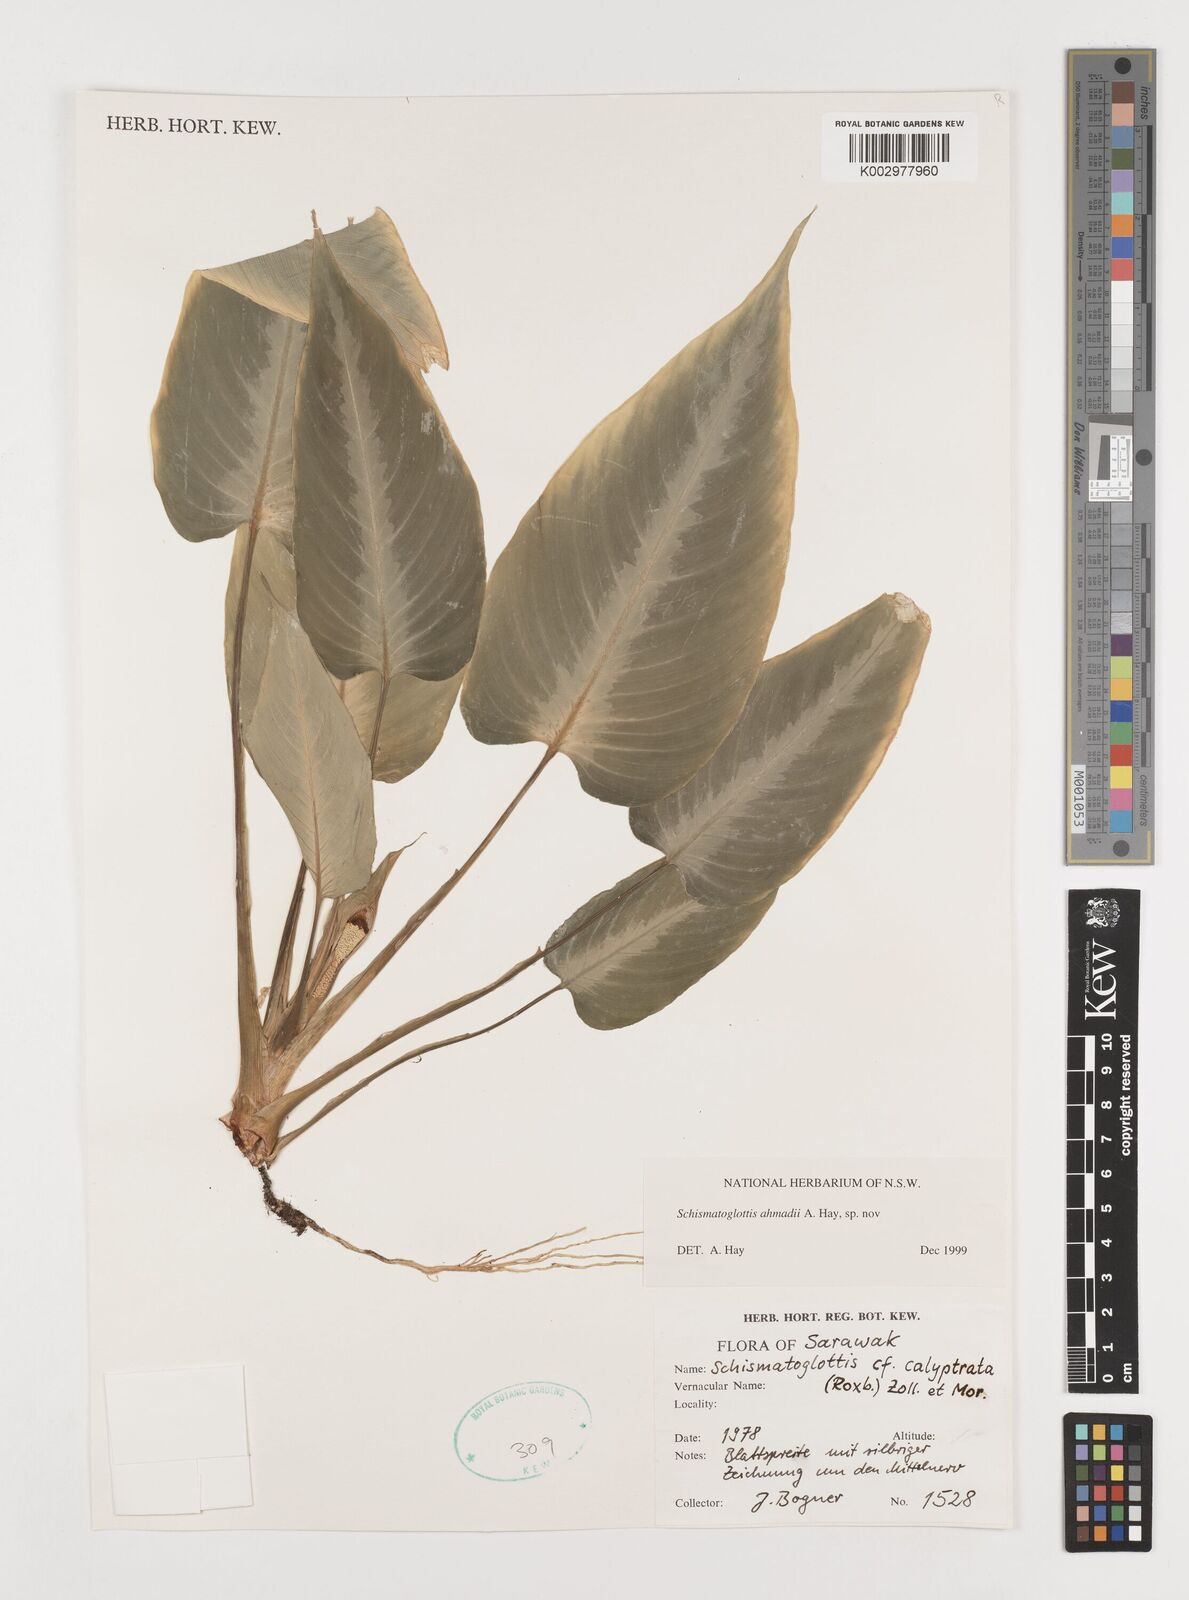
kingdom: Plantae
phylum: Tracheophyta
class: Liliopsida
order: Alismatales
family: Araceae
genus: Schismatoglottis
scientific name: Schismatoglottis ahmadii
